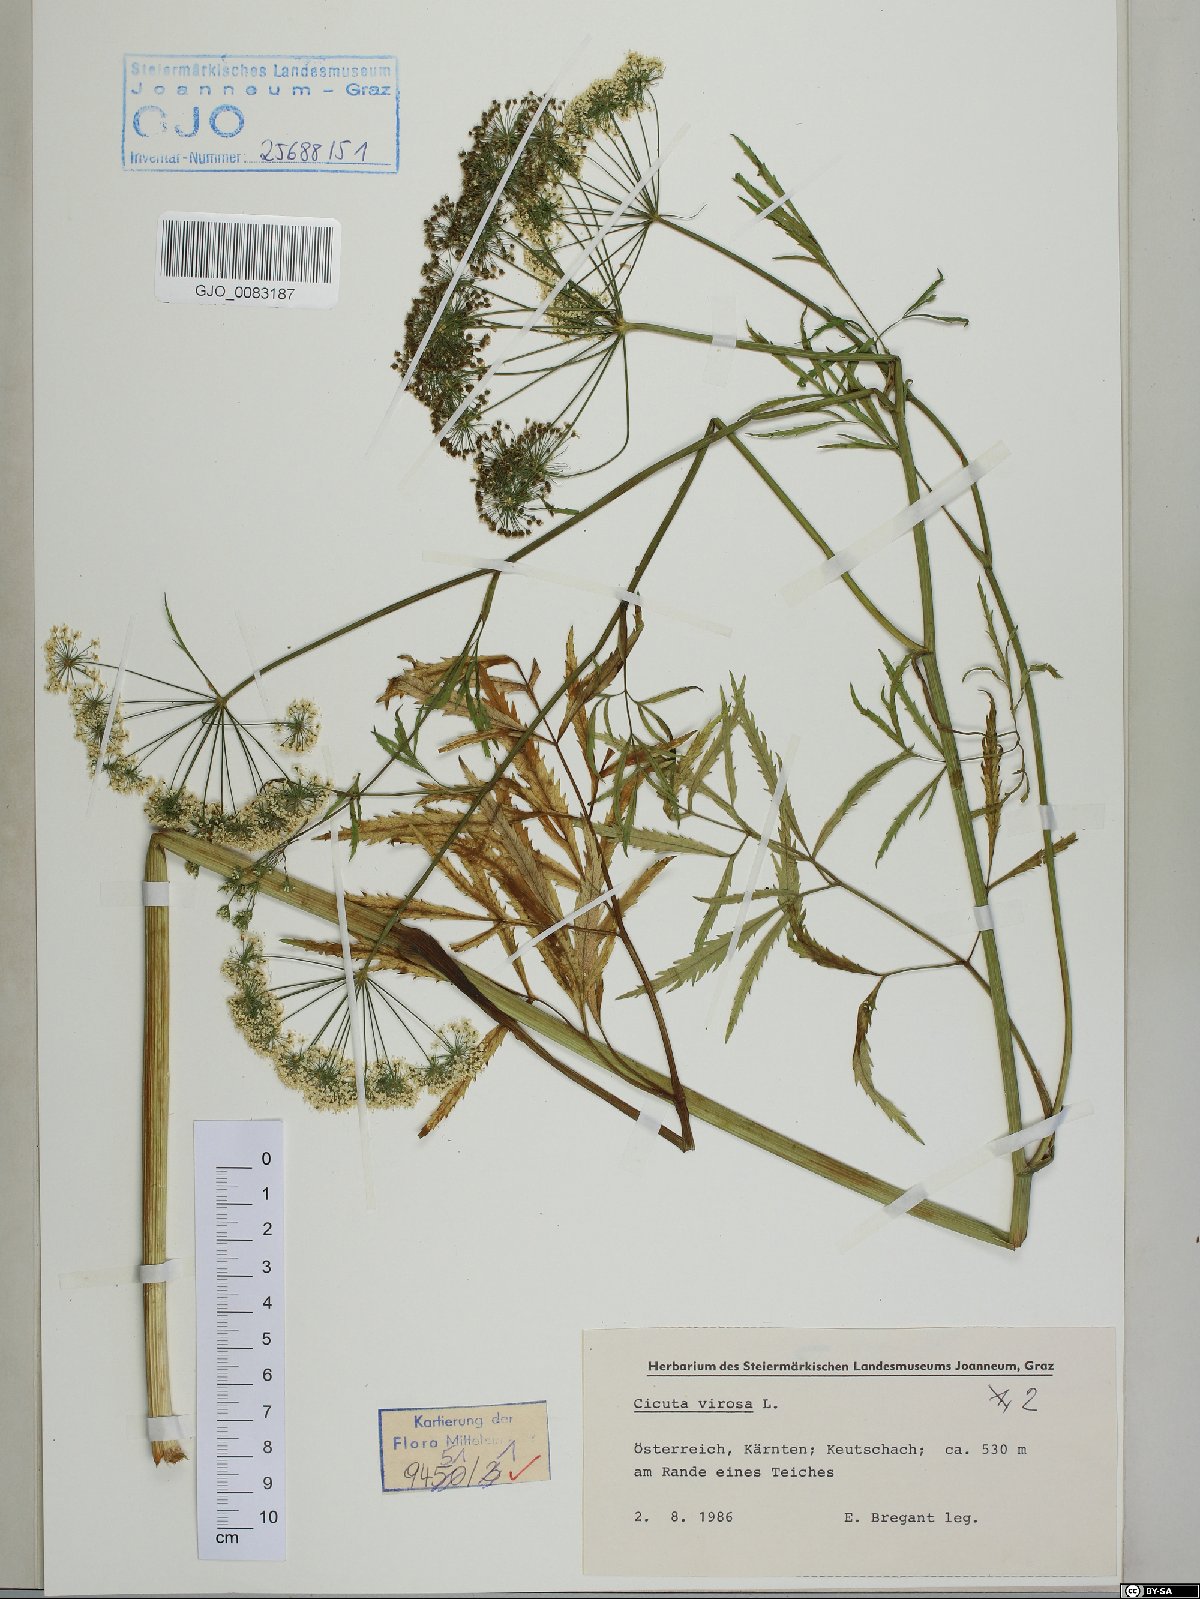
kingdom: Plantae
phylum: Tracheophyta
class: Magnoliopsida
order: Apiales
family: Apiaceae
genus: Cicuta
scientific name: Cicuta virosa
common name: Cowbane
